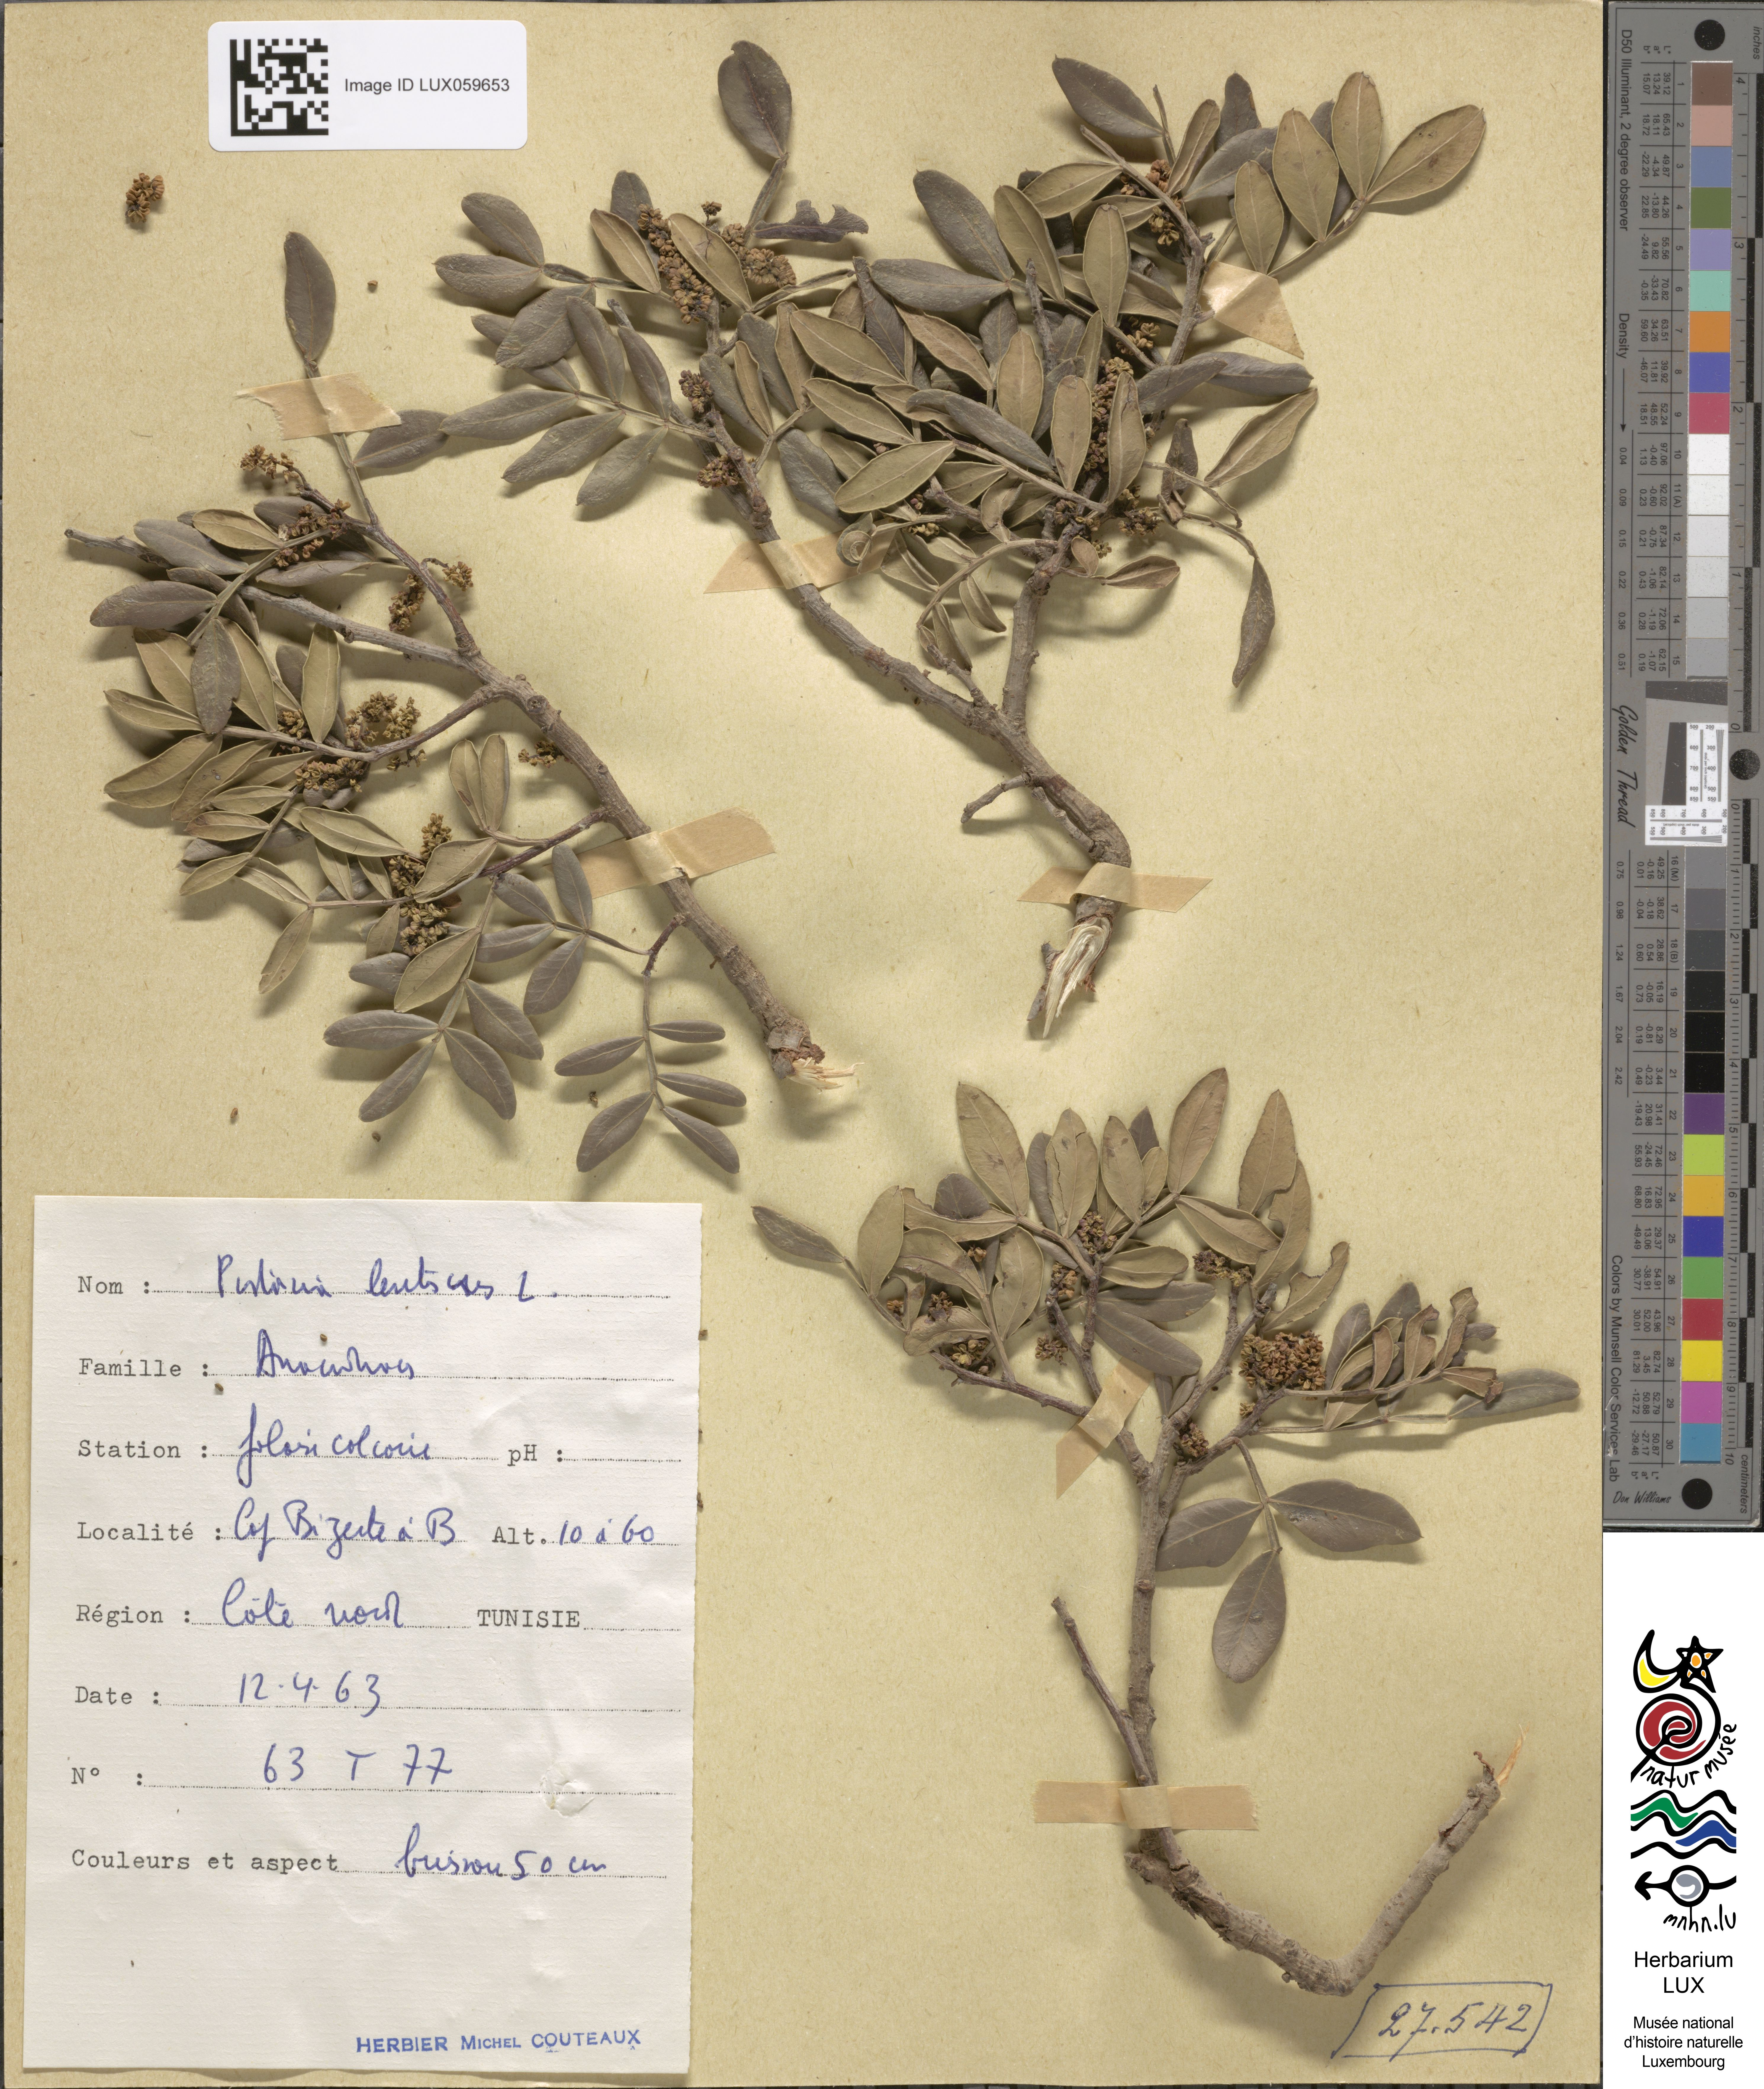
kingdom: Plantae
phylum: Tracheophyta
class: Magnoliopsida
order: Sapindales
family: Anacardiaceae
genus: Pistacia
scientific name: Pistacia lentiscus
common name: Lentisk
